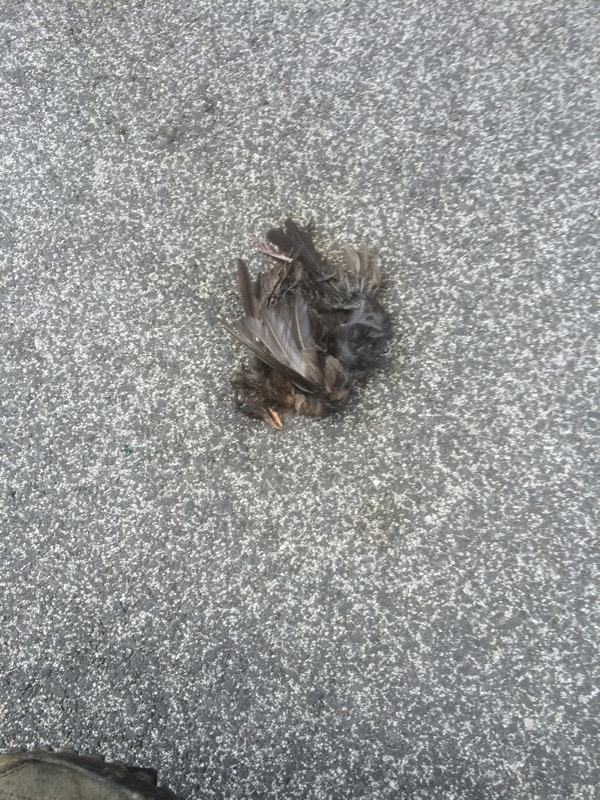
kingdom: Animalia
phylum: Chordata
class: Aves
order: Passeriformes
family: Turdidae
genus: Turdus
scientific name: Turdus merula
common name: Common blackbird
